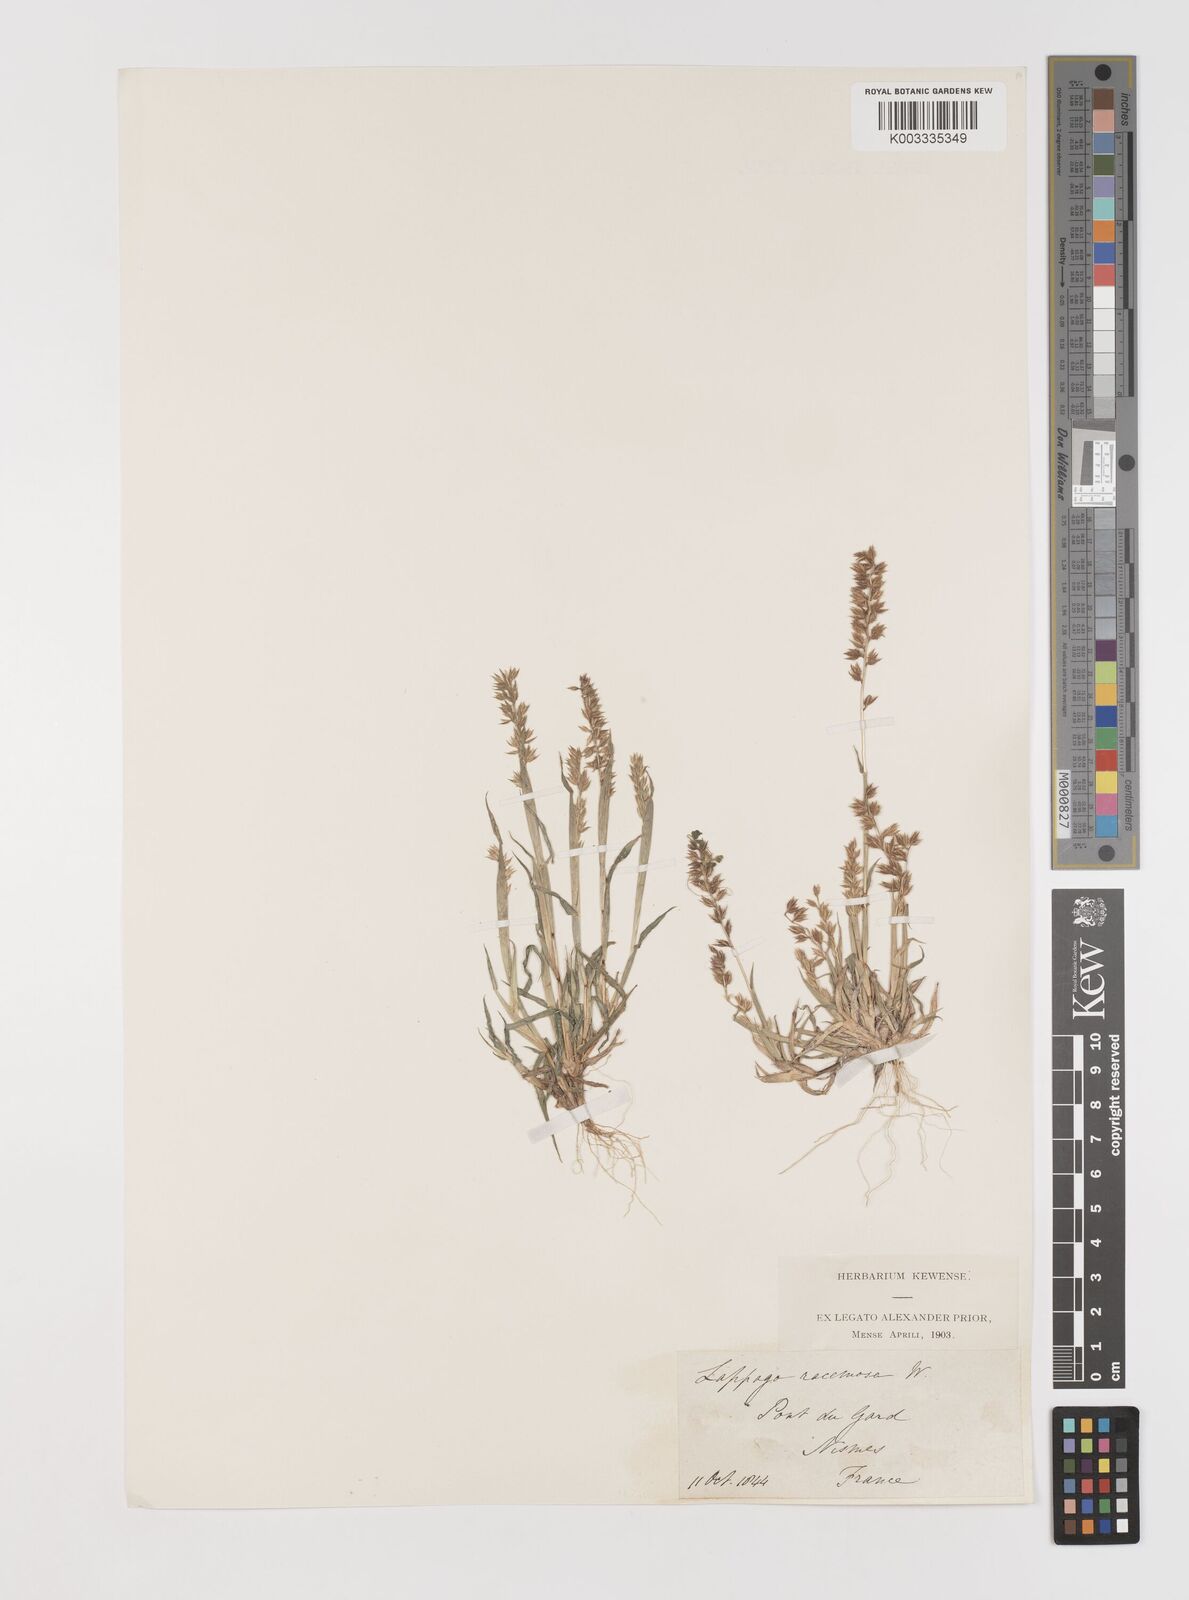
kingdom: Plantae
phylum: Tracheophyta
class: Liliopsida
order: Poales
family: Poaceae
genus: Tragus
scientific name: Tragus racemosus
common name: European bur-grass
